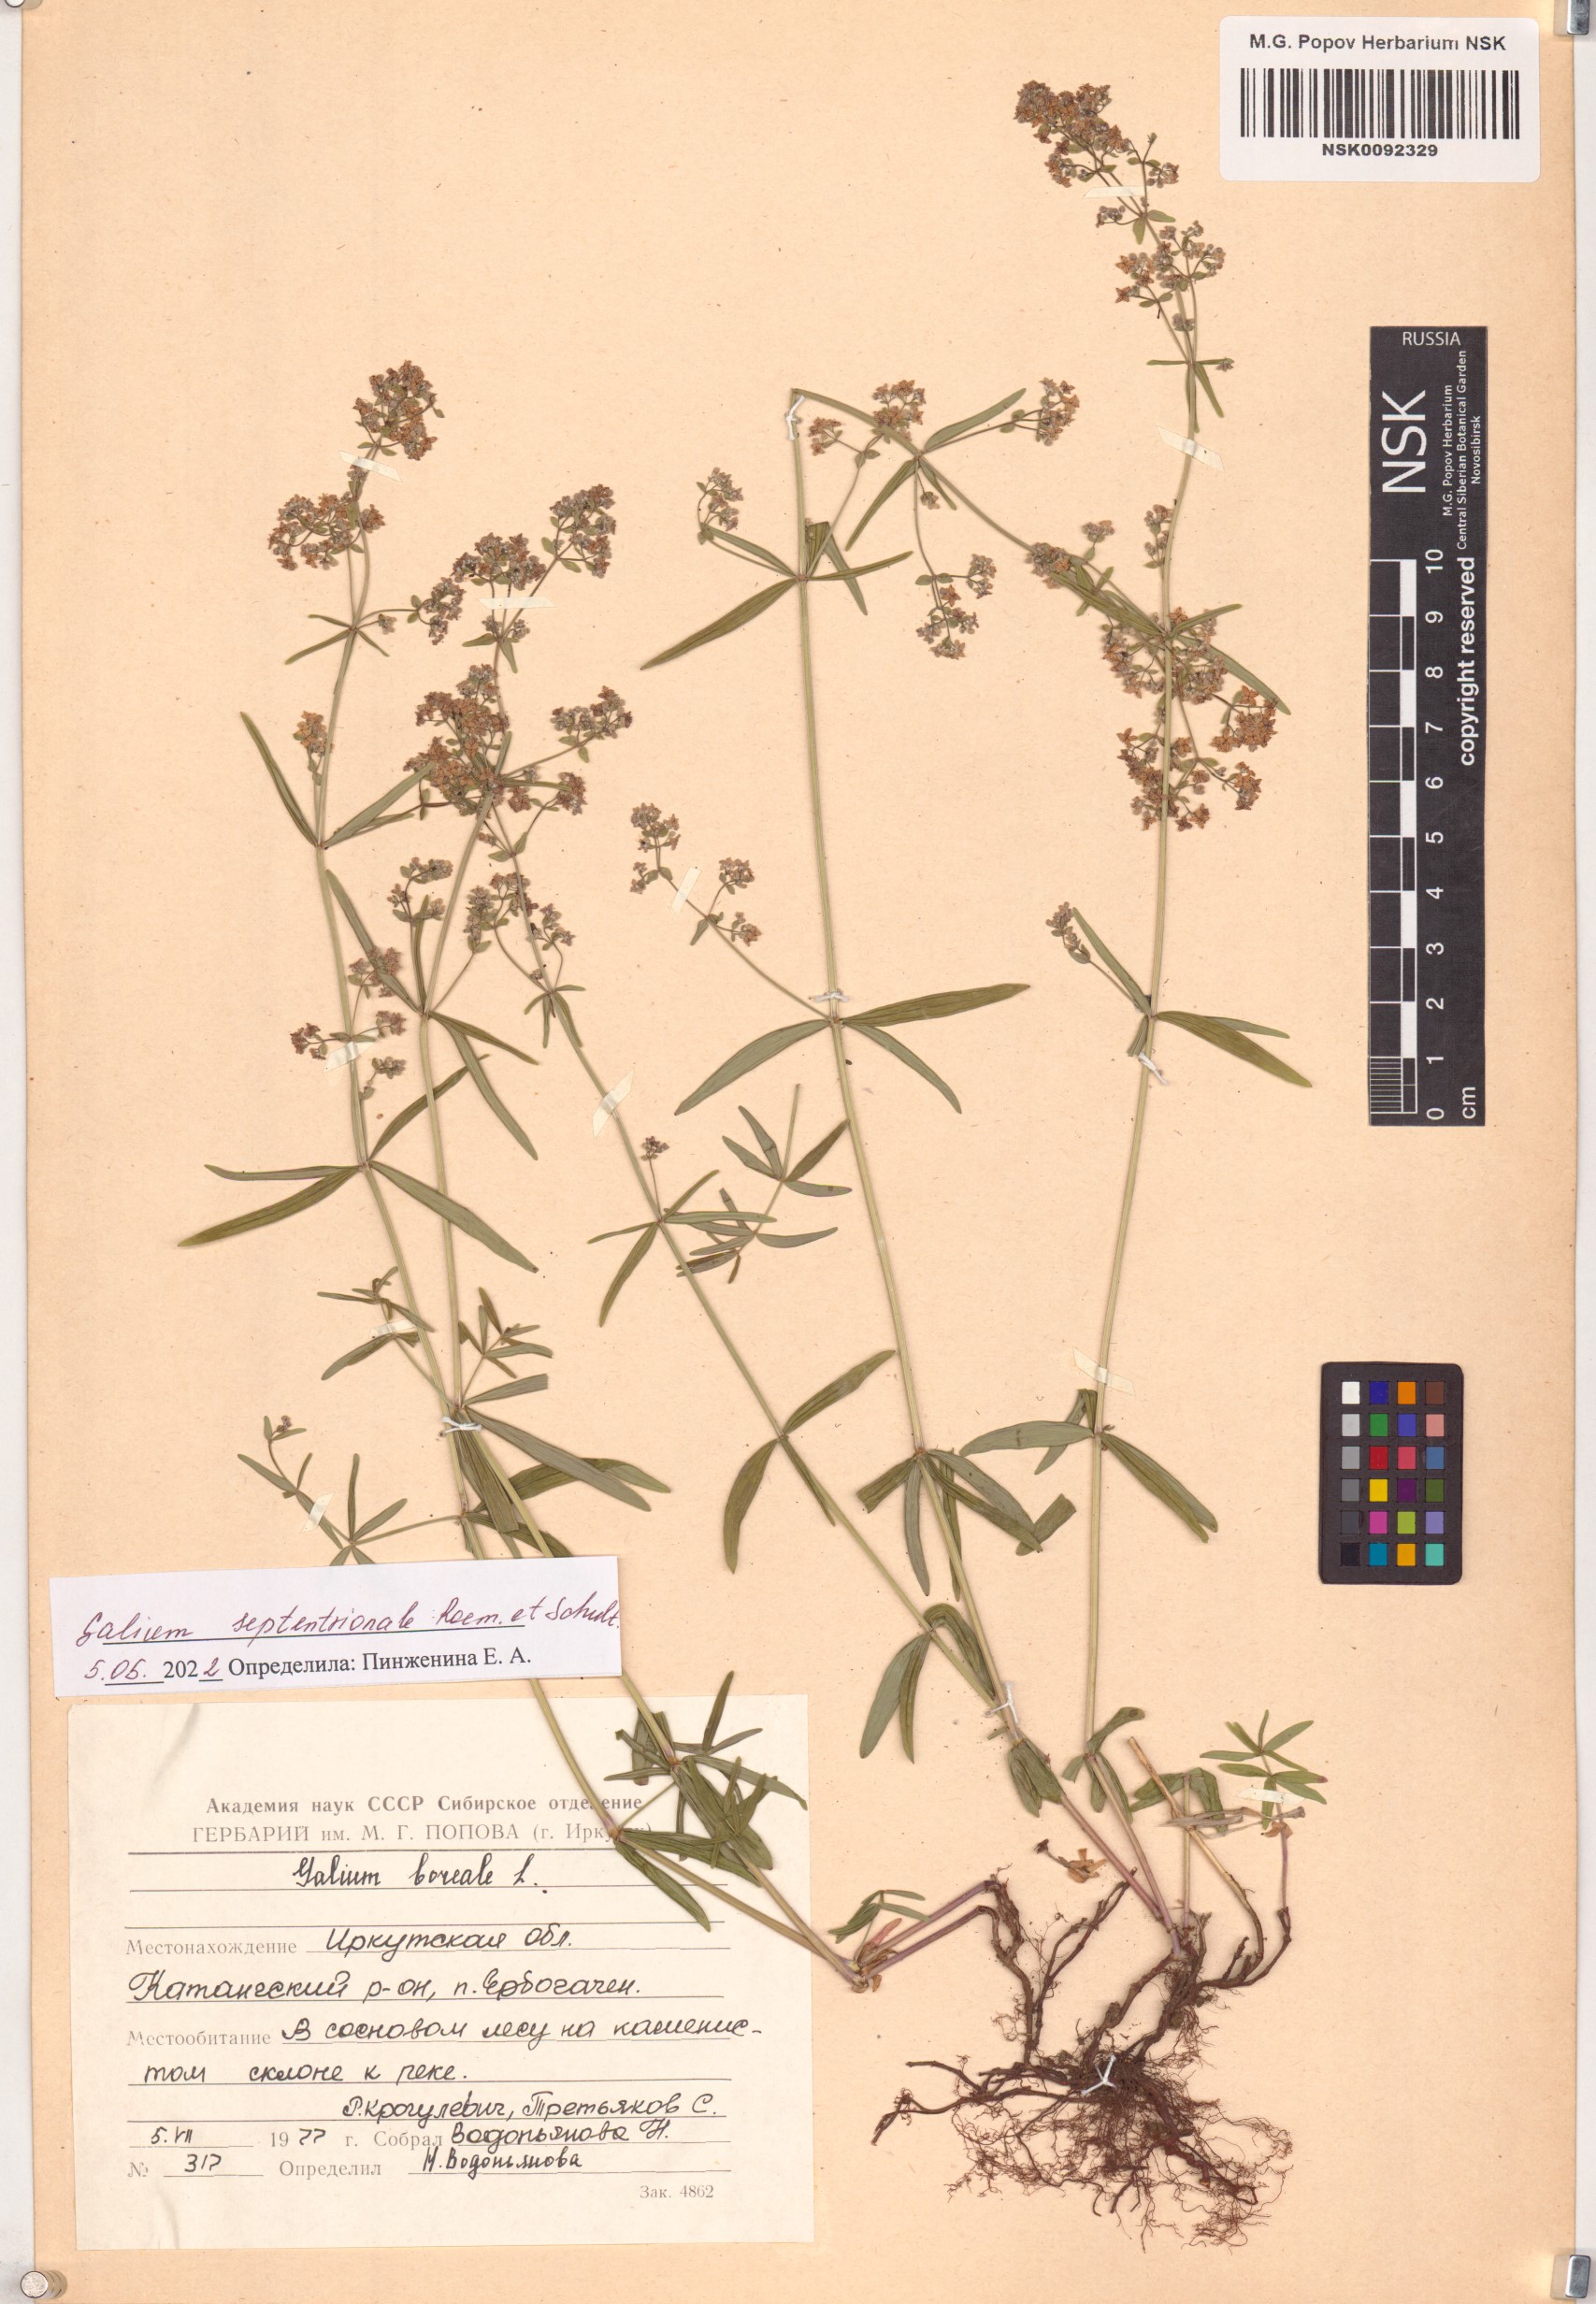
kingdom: Plantae
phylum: Tracheophyta
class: Magnoliopsida
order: Gentianales
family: Rubiaceae
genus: Galium
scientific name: Galium boreale
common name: Northern bedstraw
